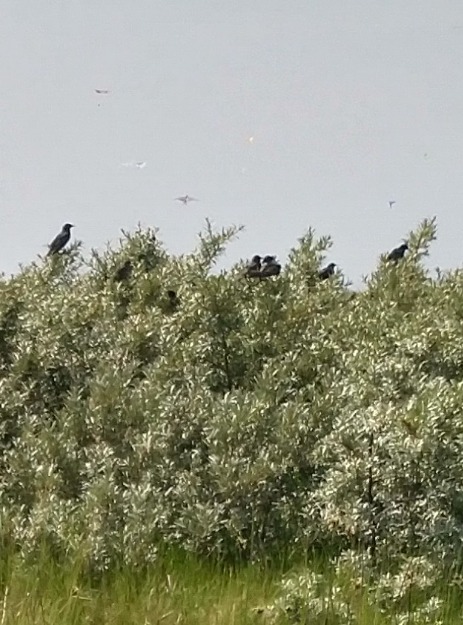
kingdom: Animalia
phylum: Chordata
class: Aves
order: Passeriformes
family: Sturnidae
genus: Sturnus
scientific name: Sturnus vulgaris
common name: Stær
